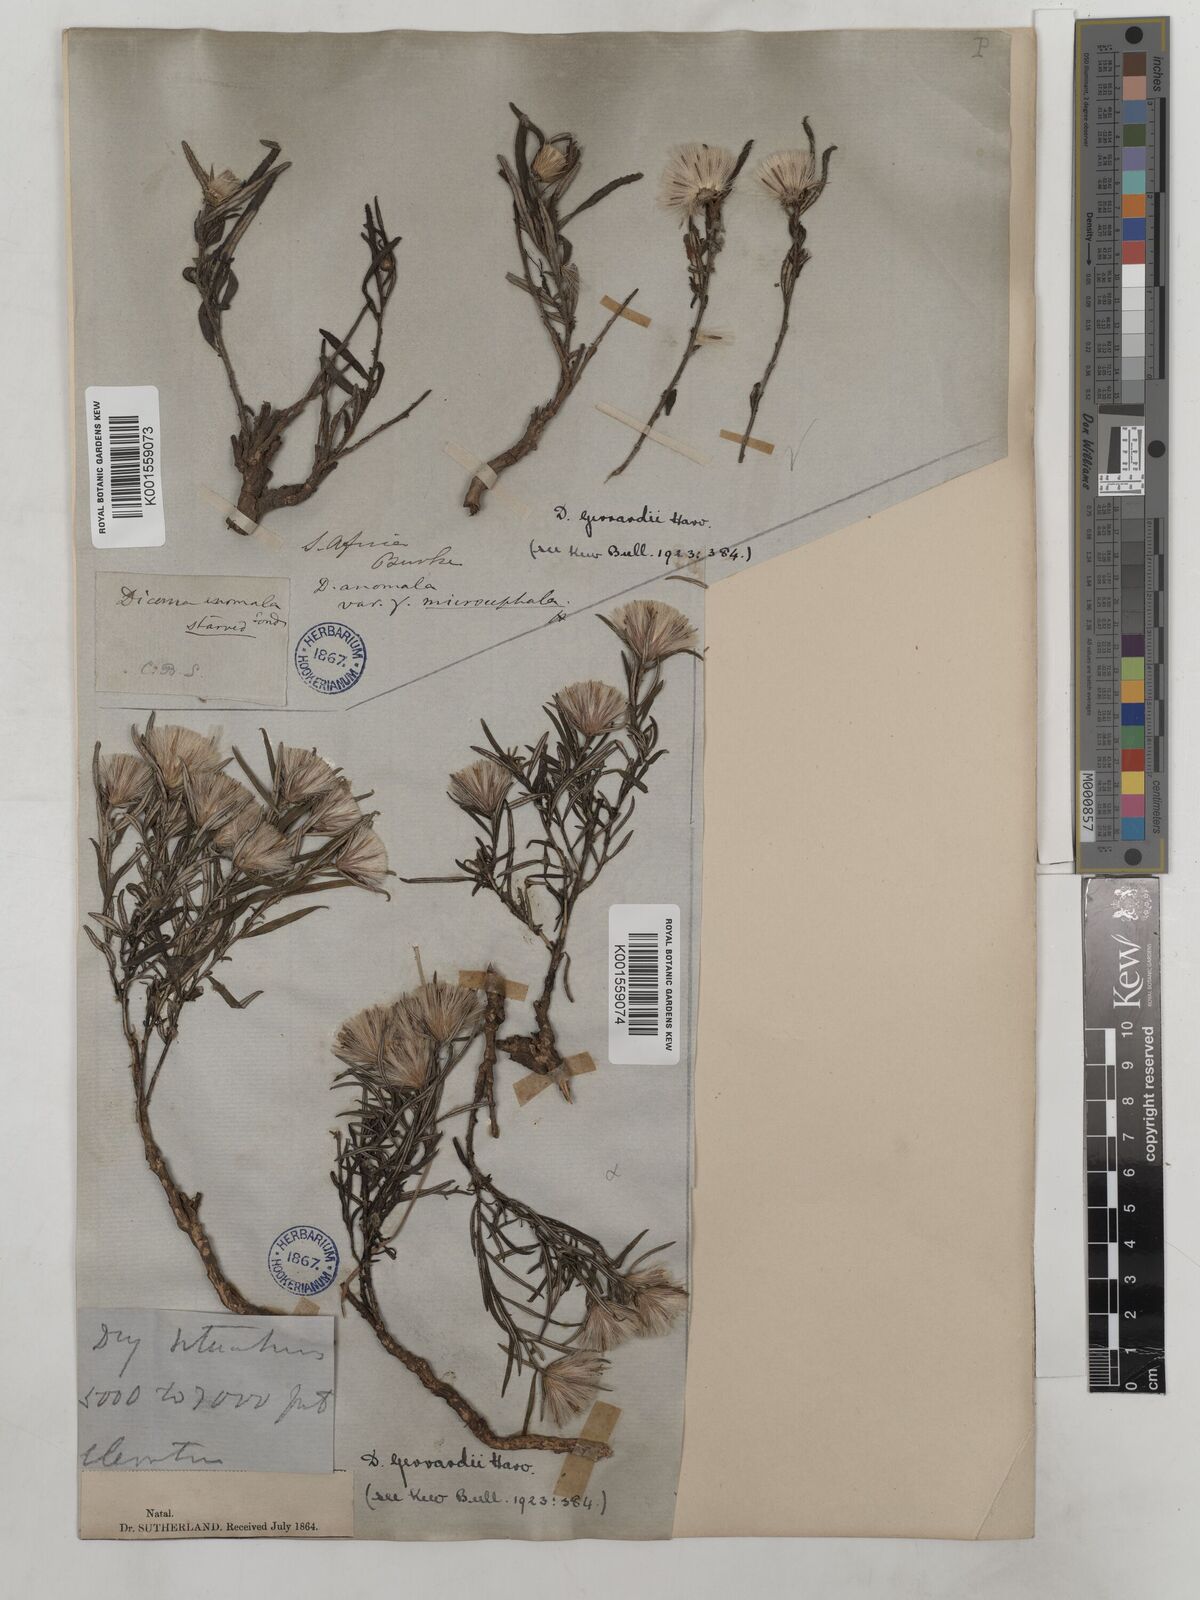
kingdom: Plantae
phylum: Tracheophyta
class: Magnoliopsida
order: Asterales
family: Asteraceae
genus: Dicoma
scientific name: Dicoma anomala
